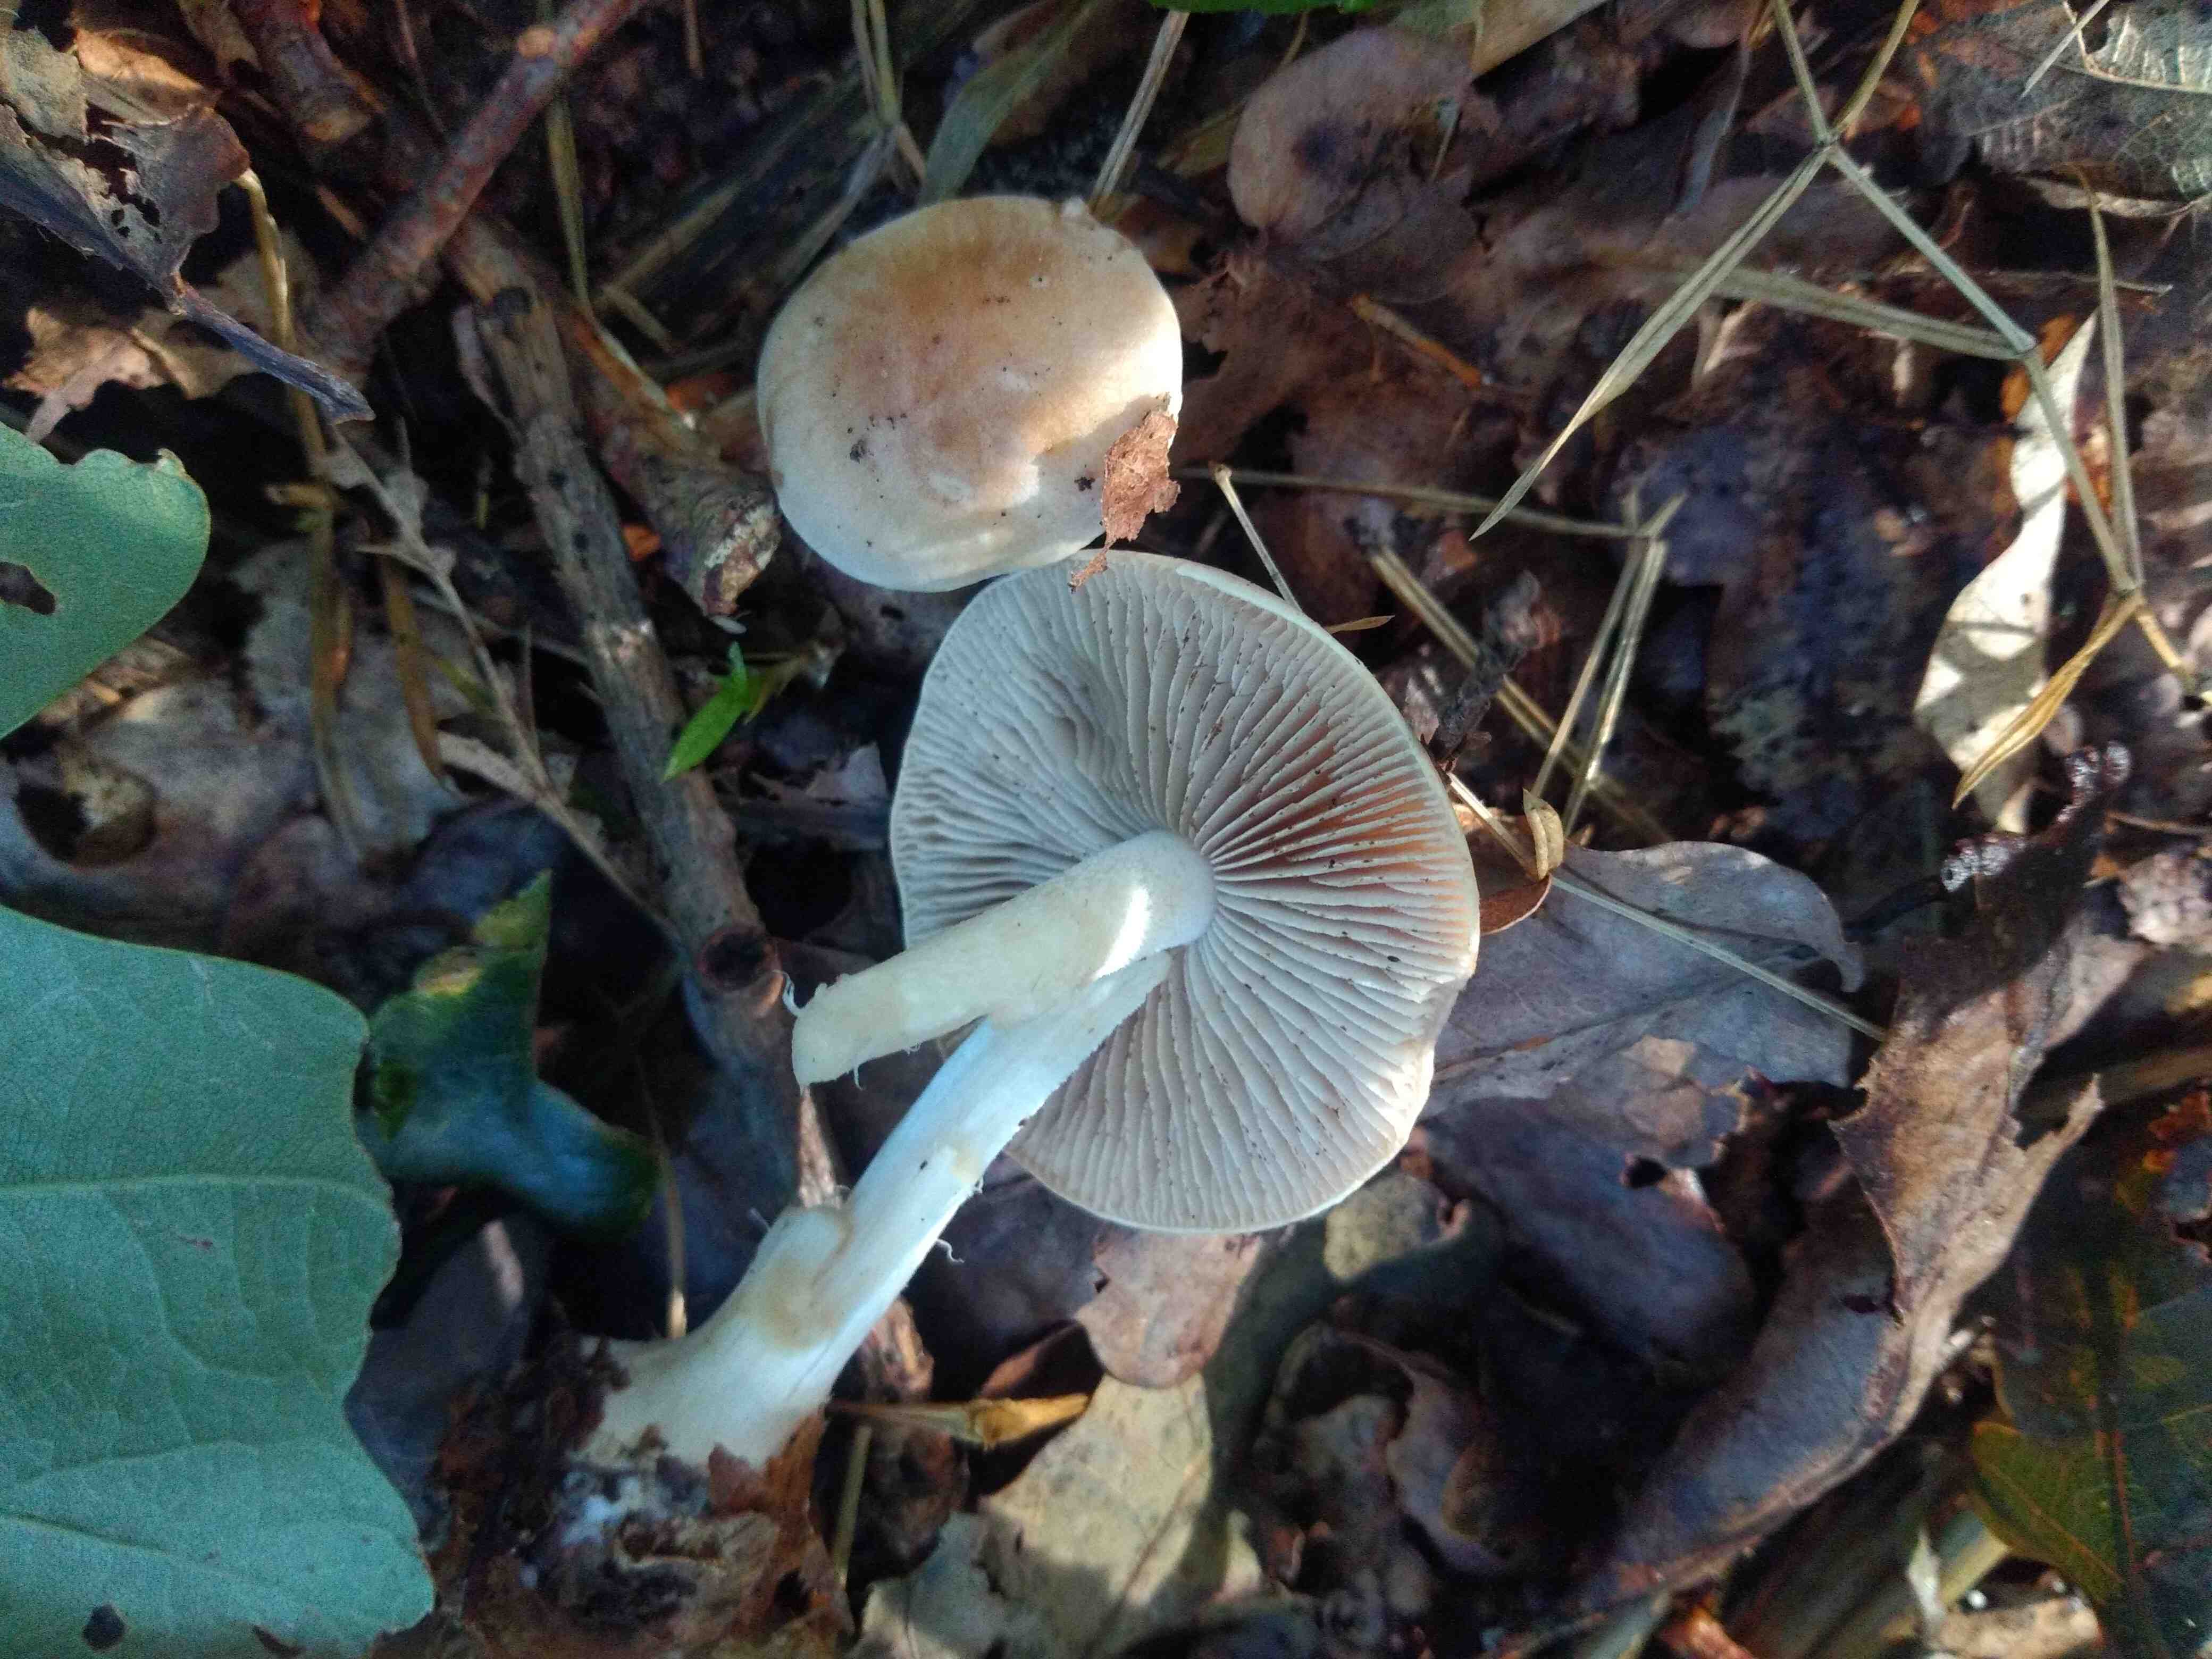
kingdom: Fungi
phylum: Basidiomycota
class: Agaricomycetes
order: Agaricales
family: Hymenogastraceae
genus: Hebeloma
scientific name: Hebeloma
